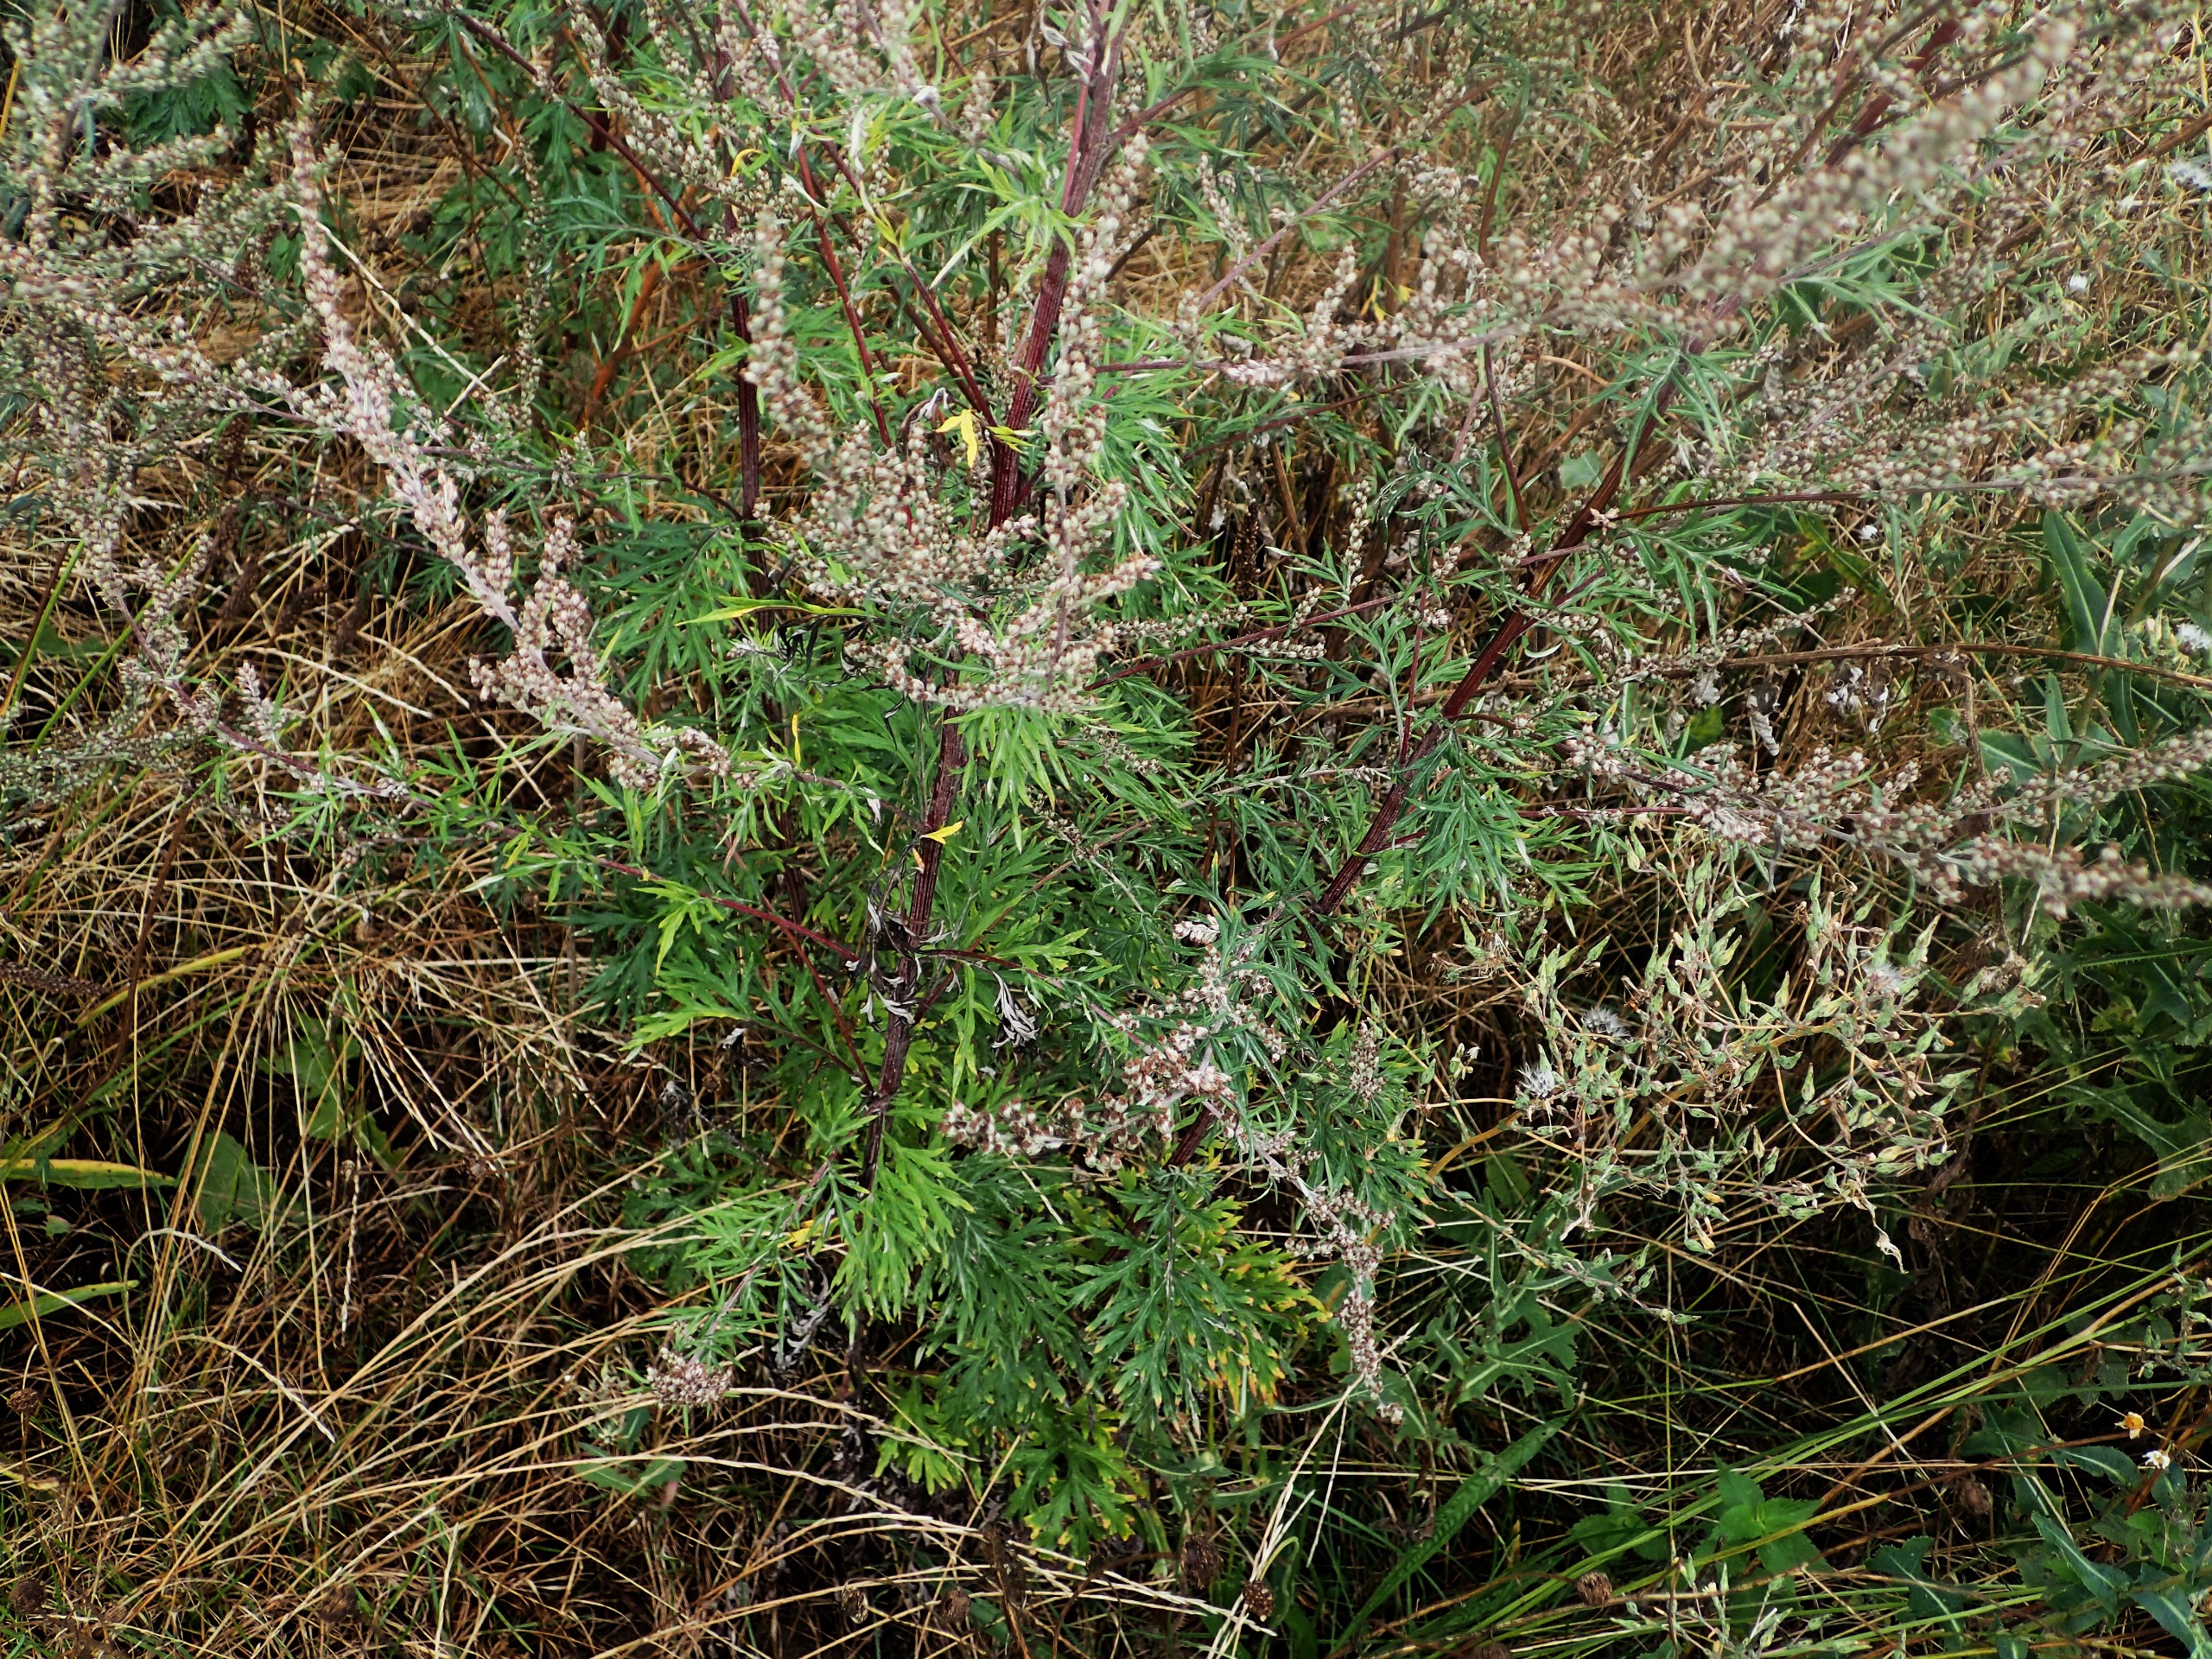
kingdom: Plantae
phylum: Tracheophyta
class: Magnoliopsida
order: Asterales
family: Asteraceae
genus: Artemisia
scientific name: Artemisia vulgaris
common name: Grå-bynke
